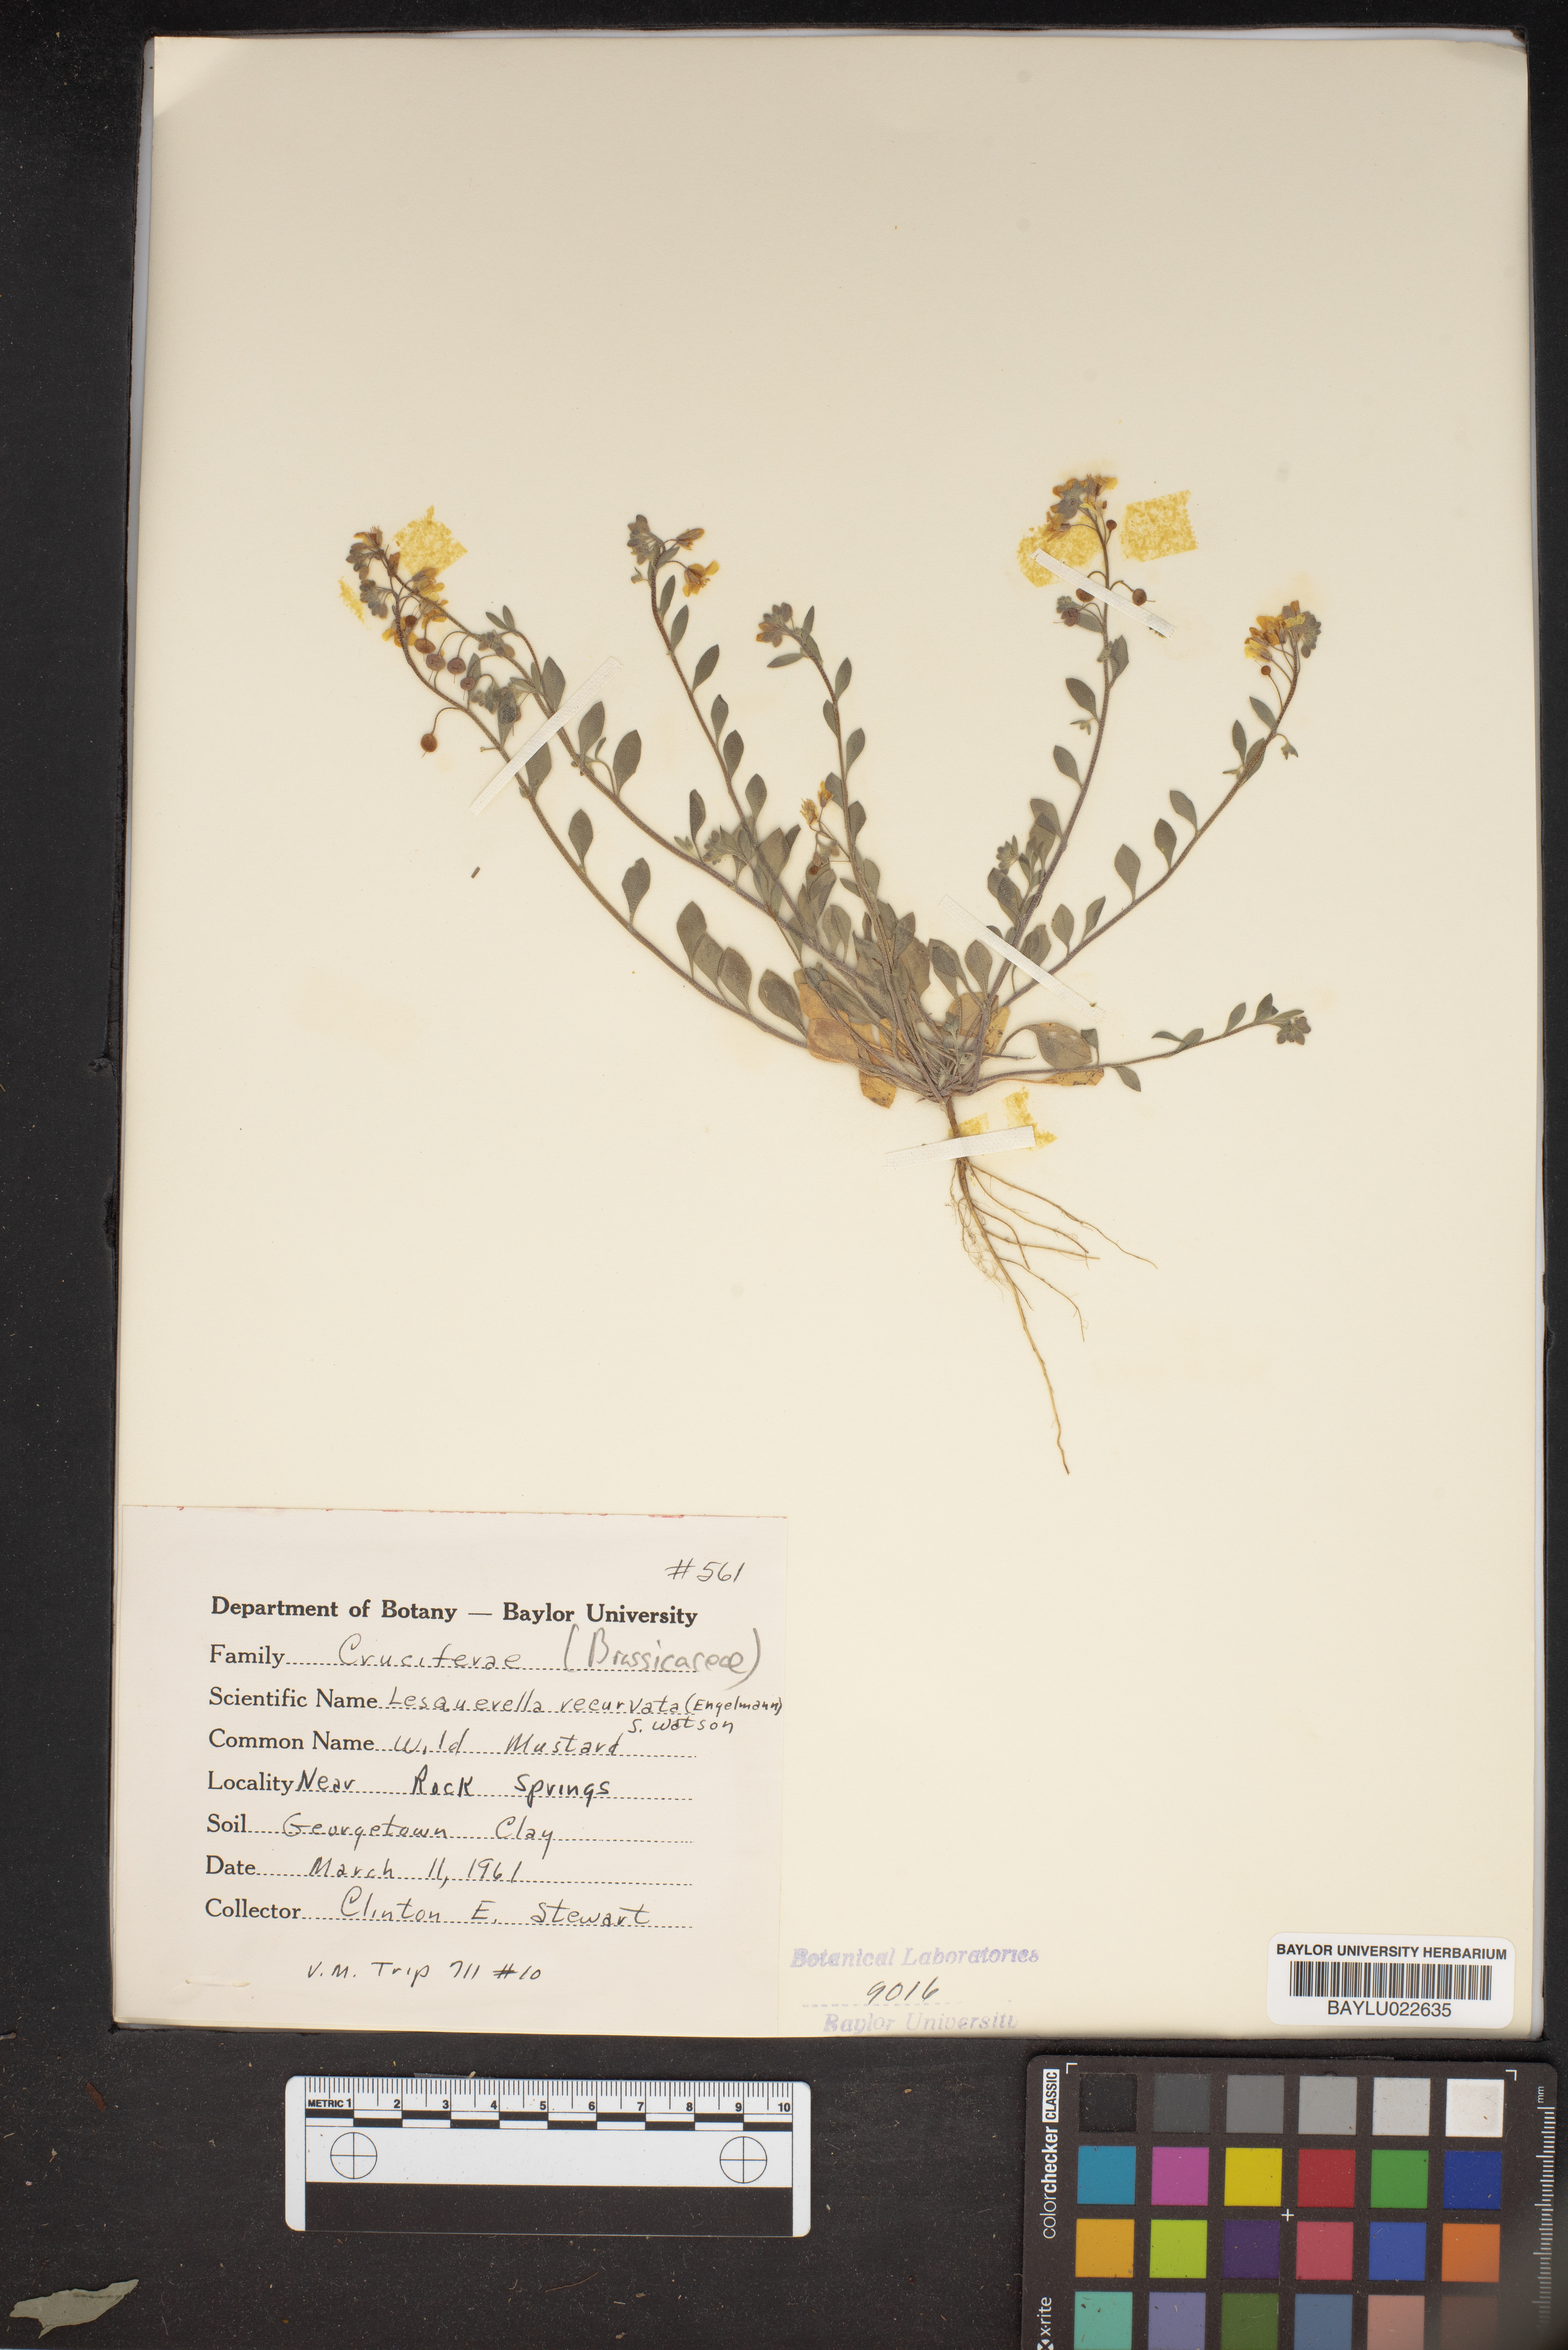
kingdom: Plantae
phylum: Tracheophyta
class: Magnoliopsida
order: Brassicales
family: Brassicaceae
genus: Physaria
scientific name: Physaria recurvata
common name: Gaslight bladderpod
